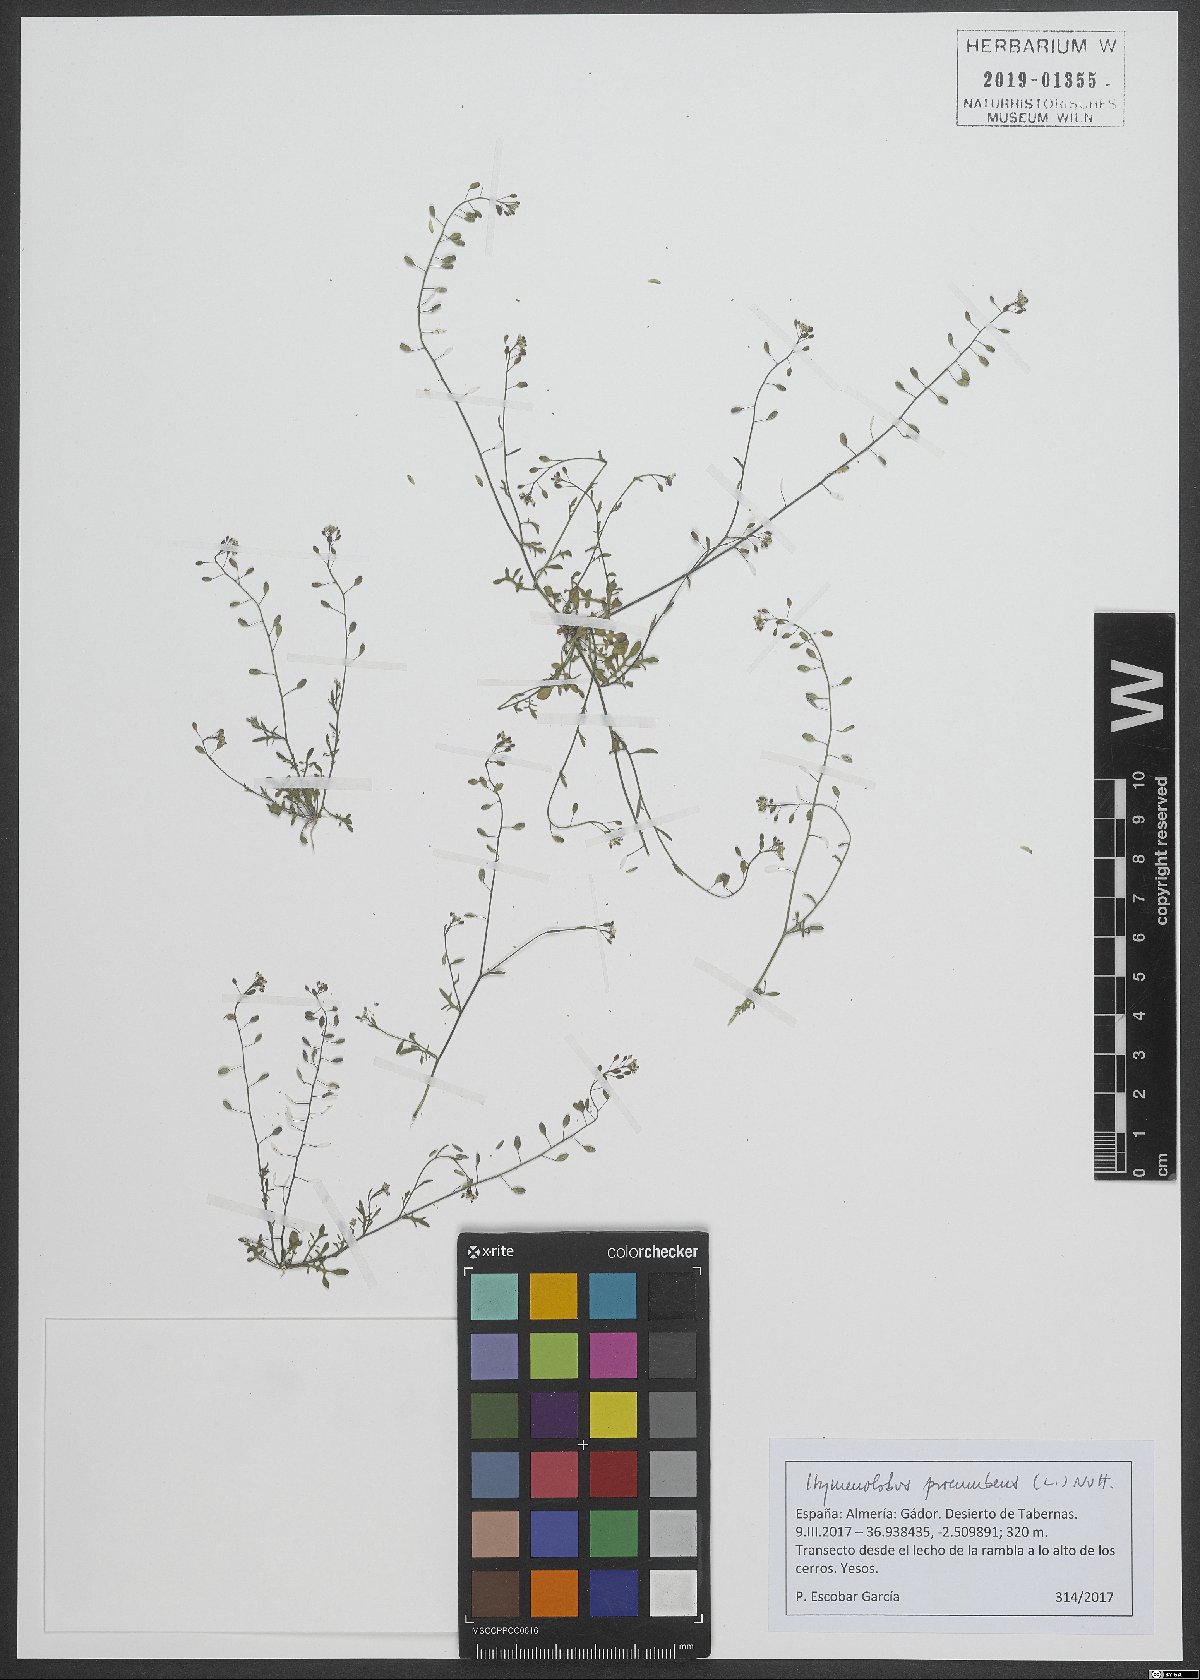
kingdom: Plantae
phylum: Tracheophyta
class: Magnoliopsida
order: Brassicales
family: Brassicaceae
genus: Hornungia
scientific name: Hornungia procumbens
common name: Oval purse
